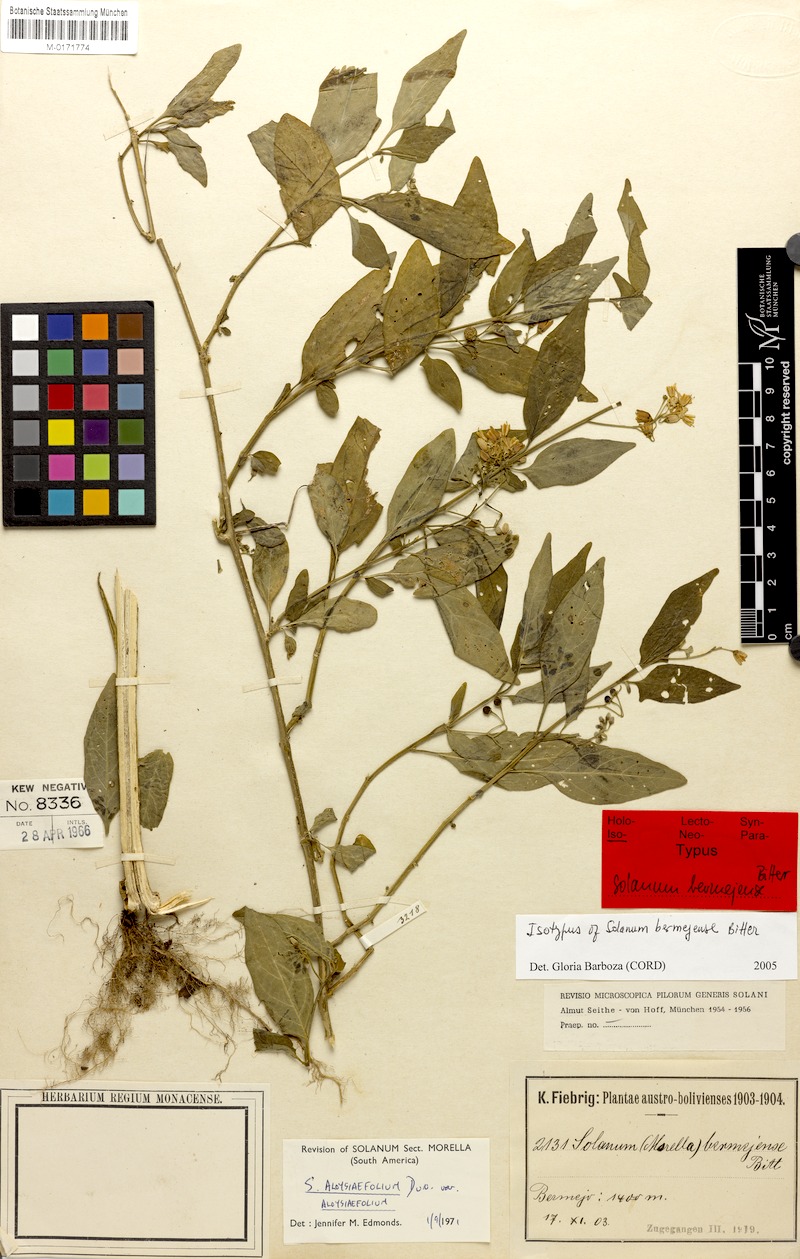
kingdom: Plantae
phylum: Tracheophyta
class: Magnoliopsida
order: Solanales
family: Solanaceae
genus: Solanum
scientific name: Solanum aloysiifolium
